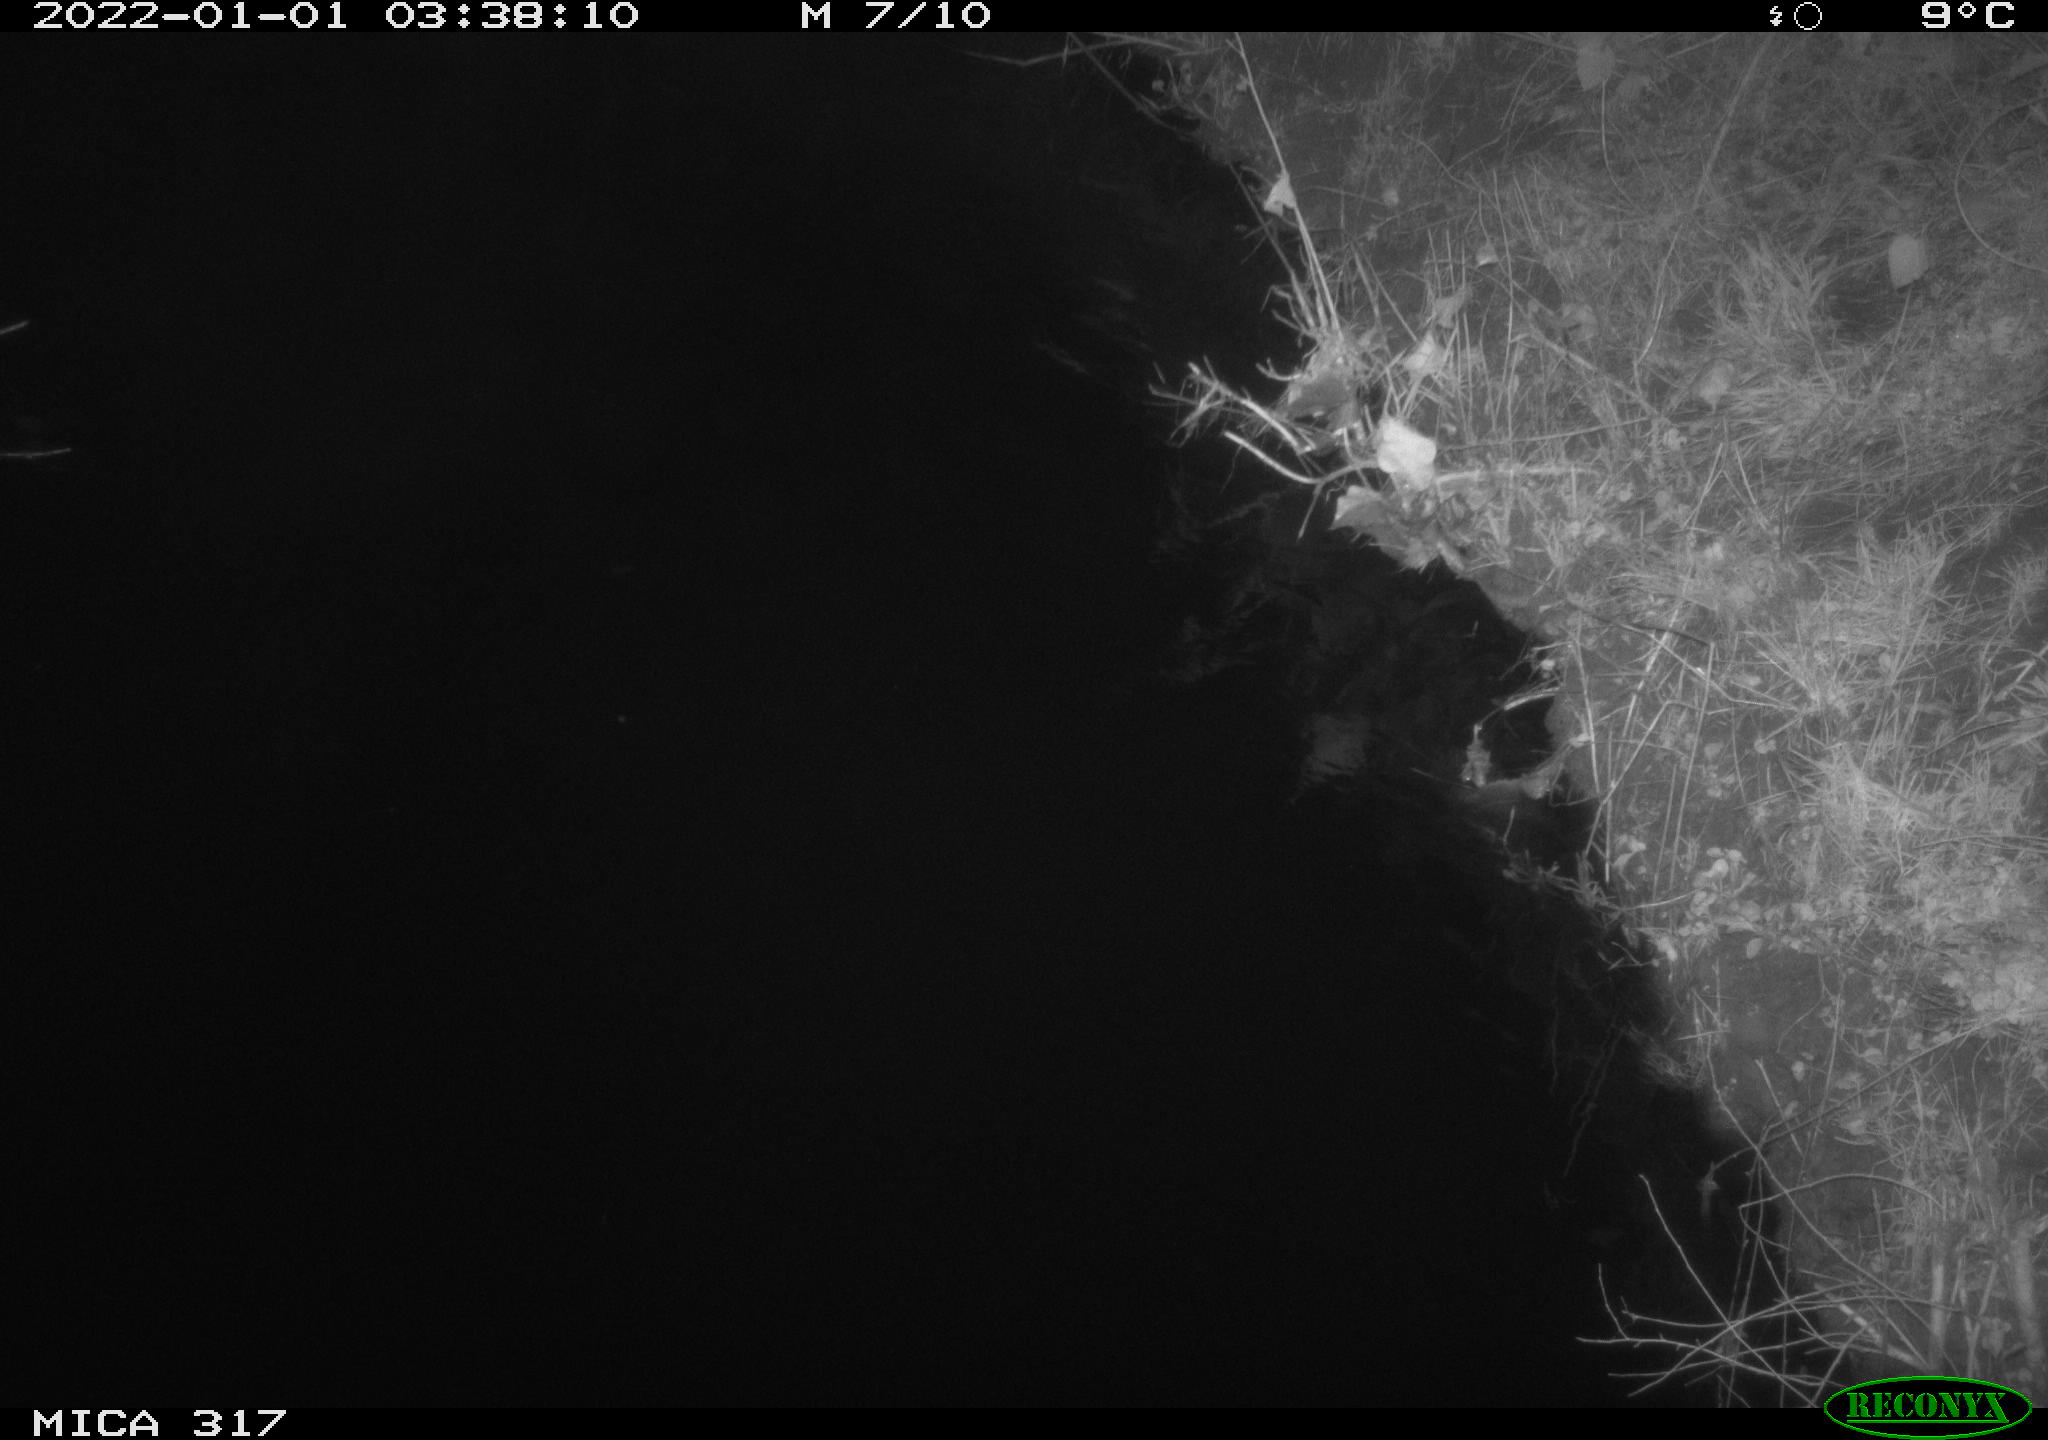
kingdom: Animalia
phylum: Chordata
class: Mammalia
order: Carnivora
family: Canidae
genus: Vulpes
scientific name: Vulpes vulpes
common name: Red fox
